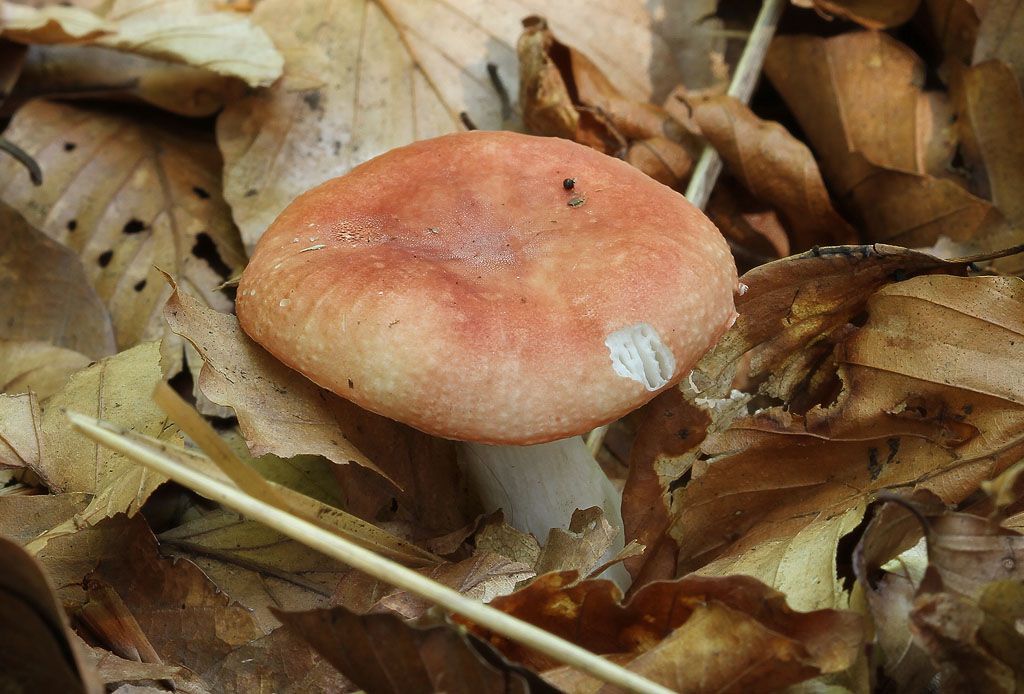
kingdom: Fungi
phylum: Basidiomycota
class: Agaricomycetes
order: Russulales
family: Russulaceae
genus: Russula
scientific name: Russula puellula
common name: gulnende skørhat
